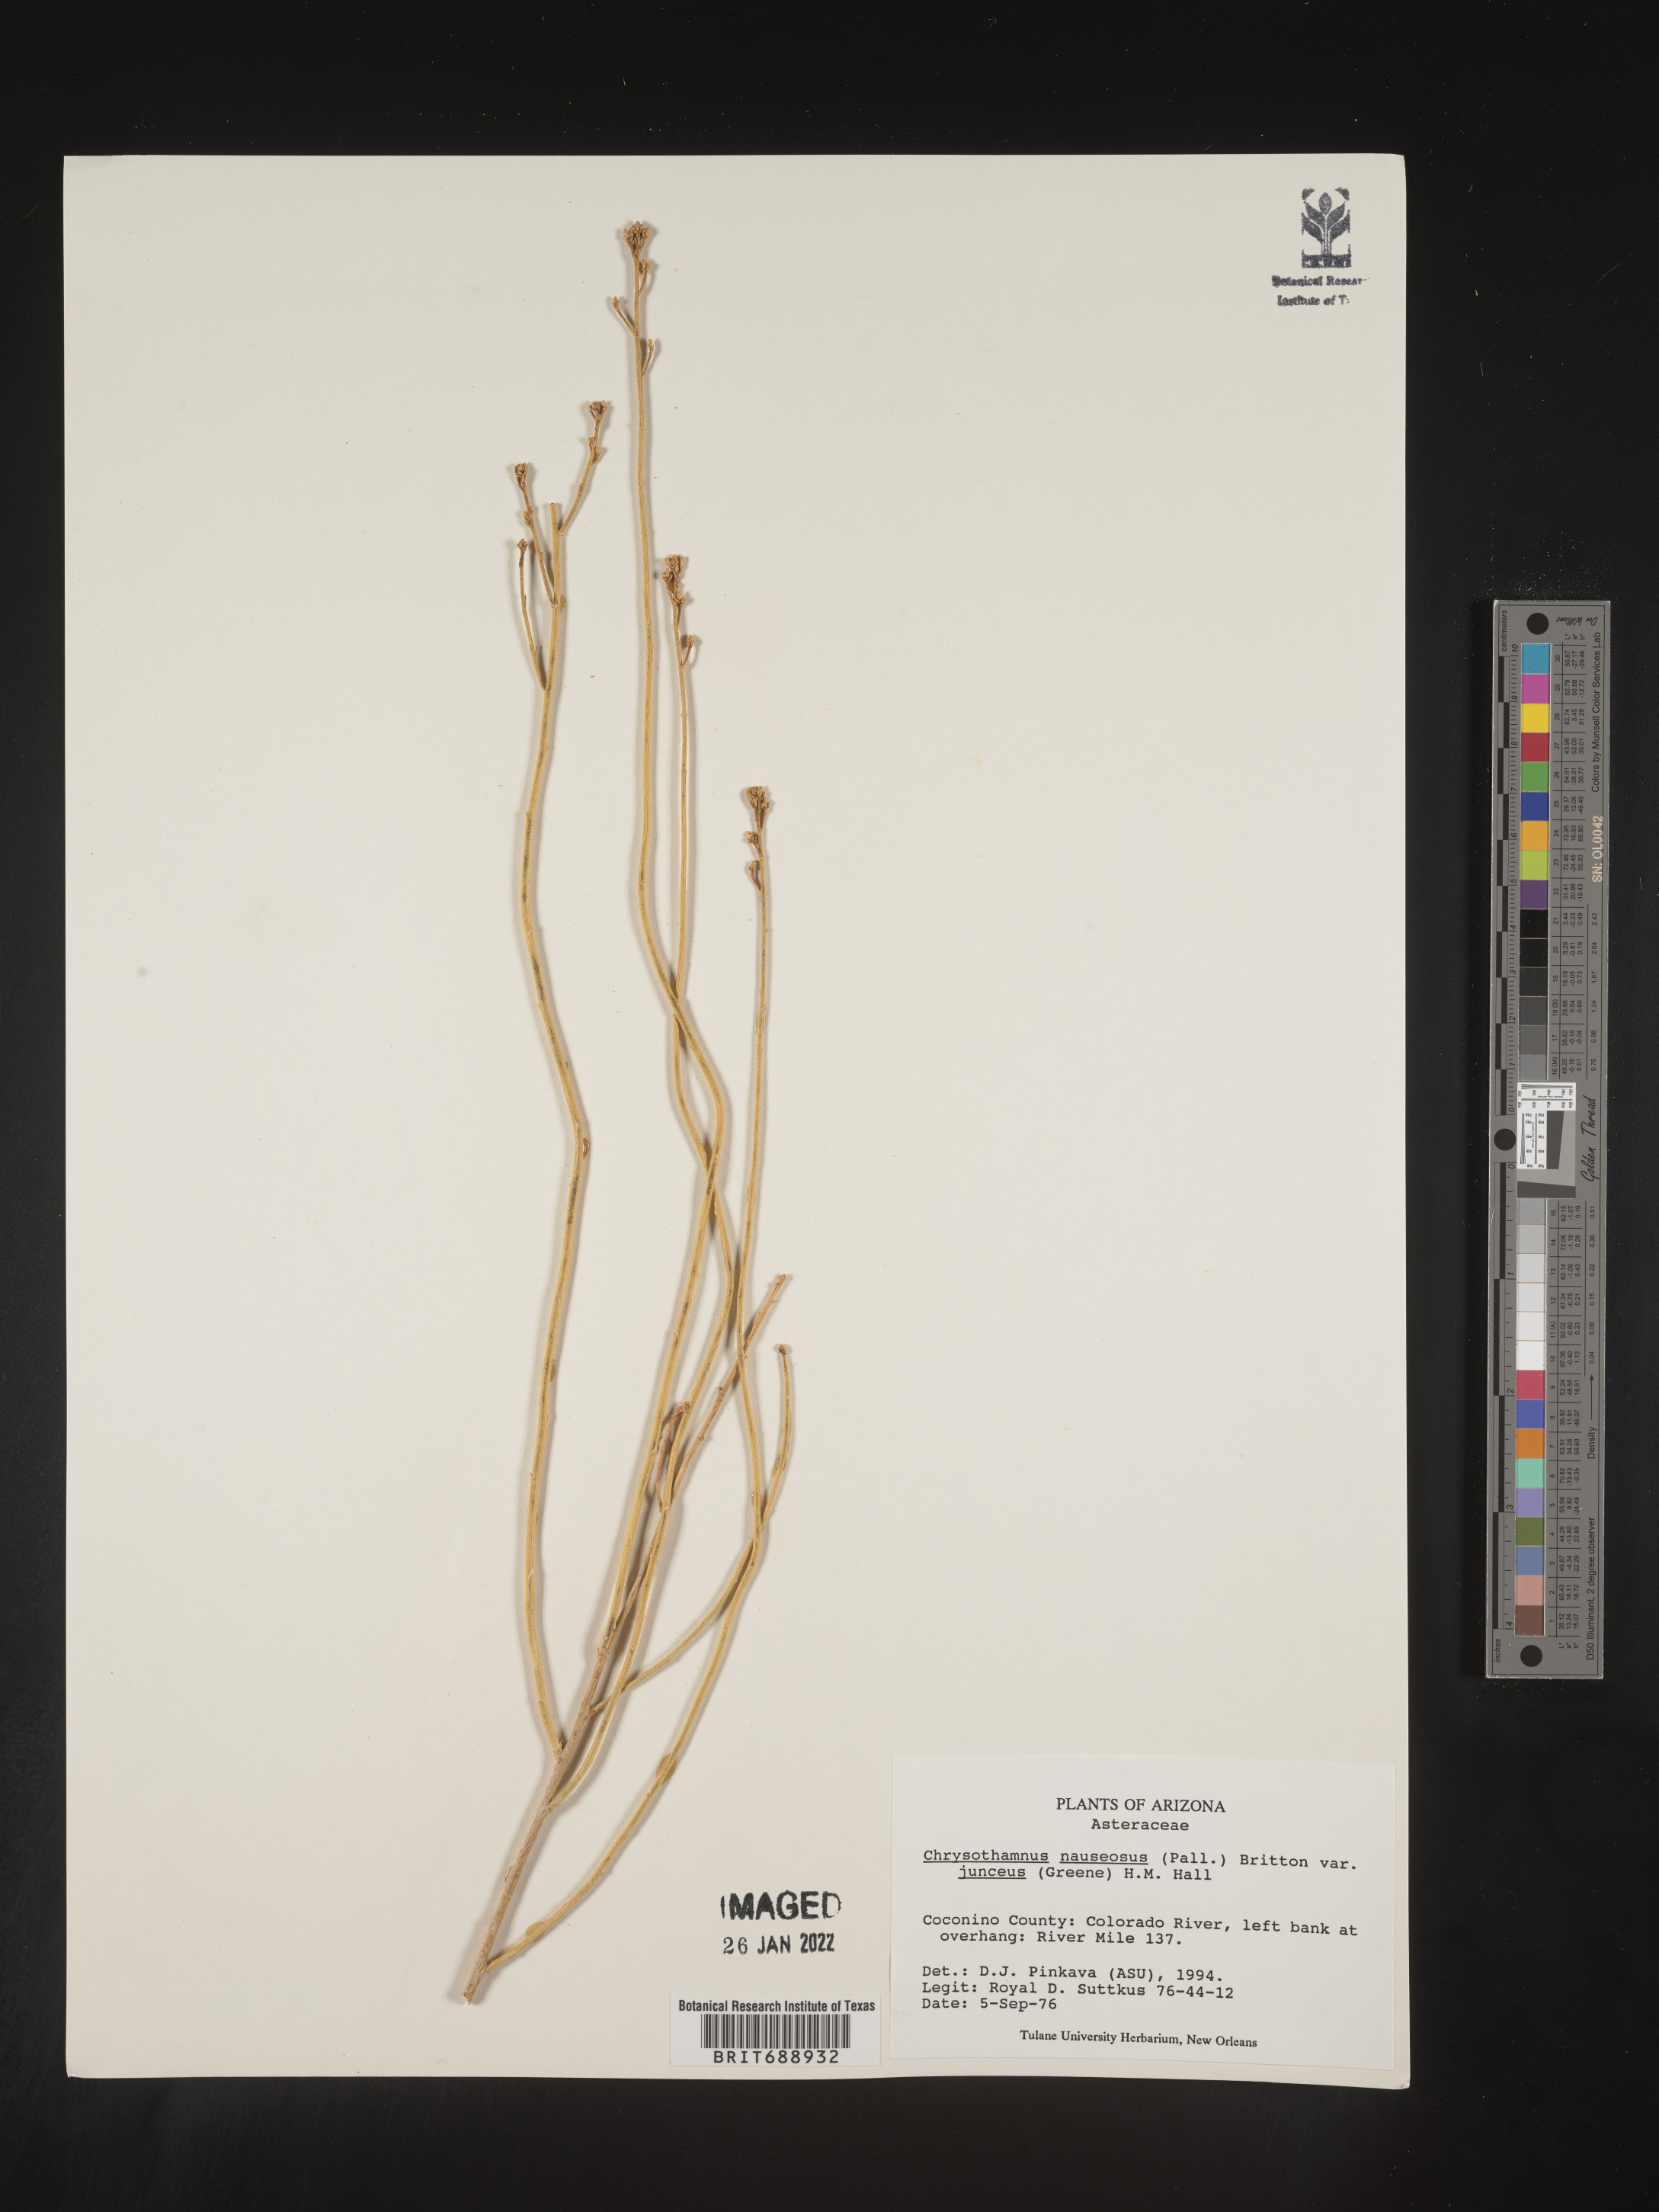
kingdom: Plantae
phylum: Tracheophyta
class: Magnoliopsida
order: Asterales
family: Asteraceae
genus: Ericameria
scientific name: Ericameria nauseosa
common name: Rubber rabbitbrush
